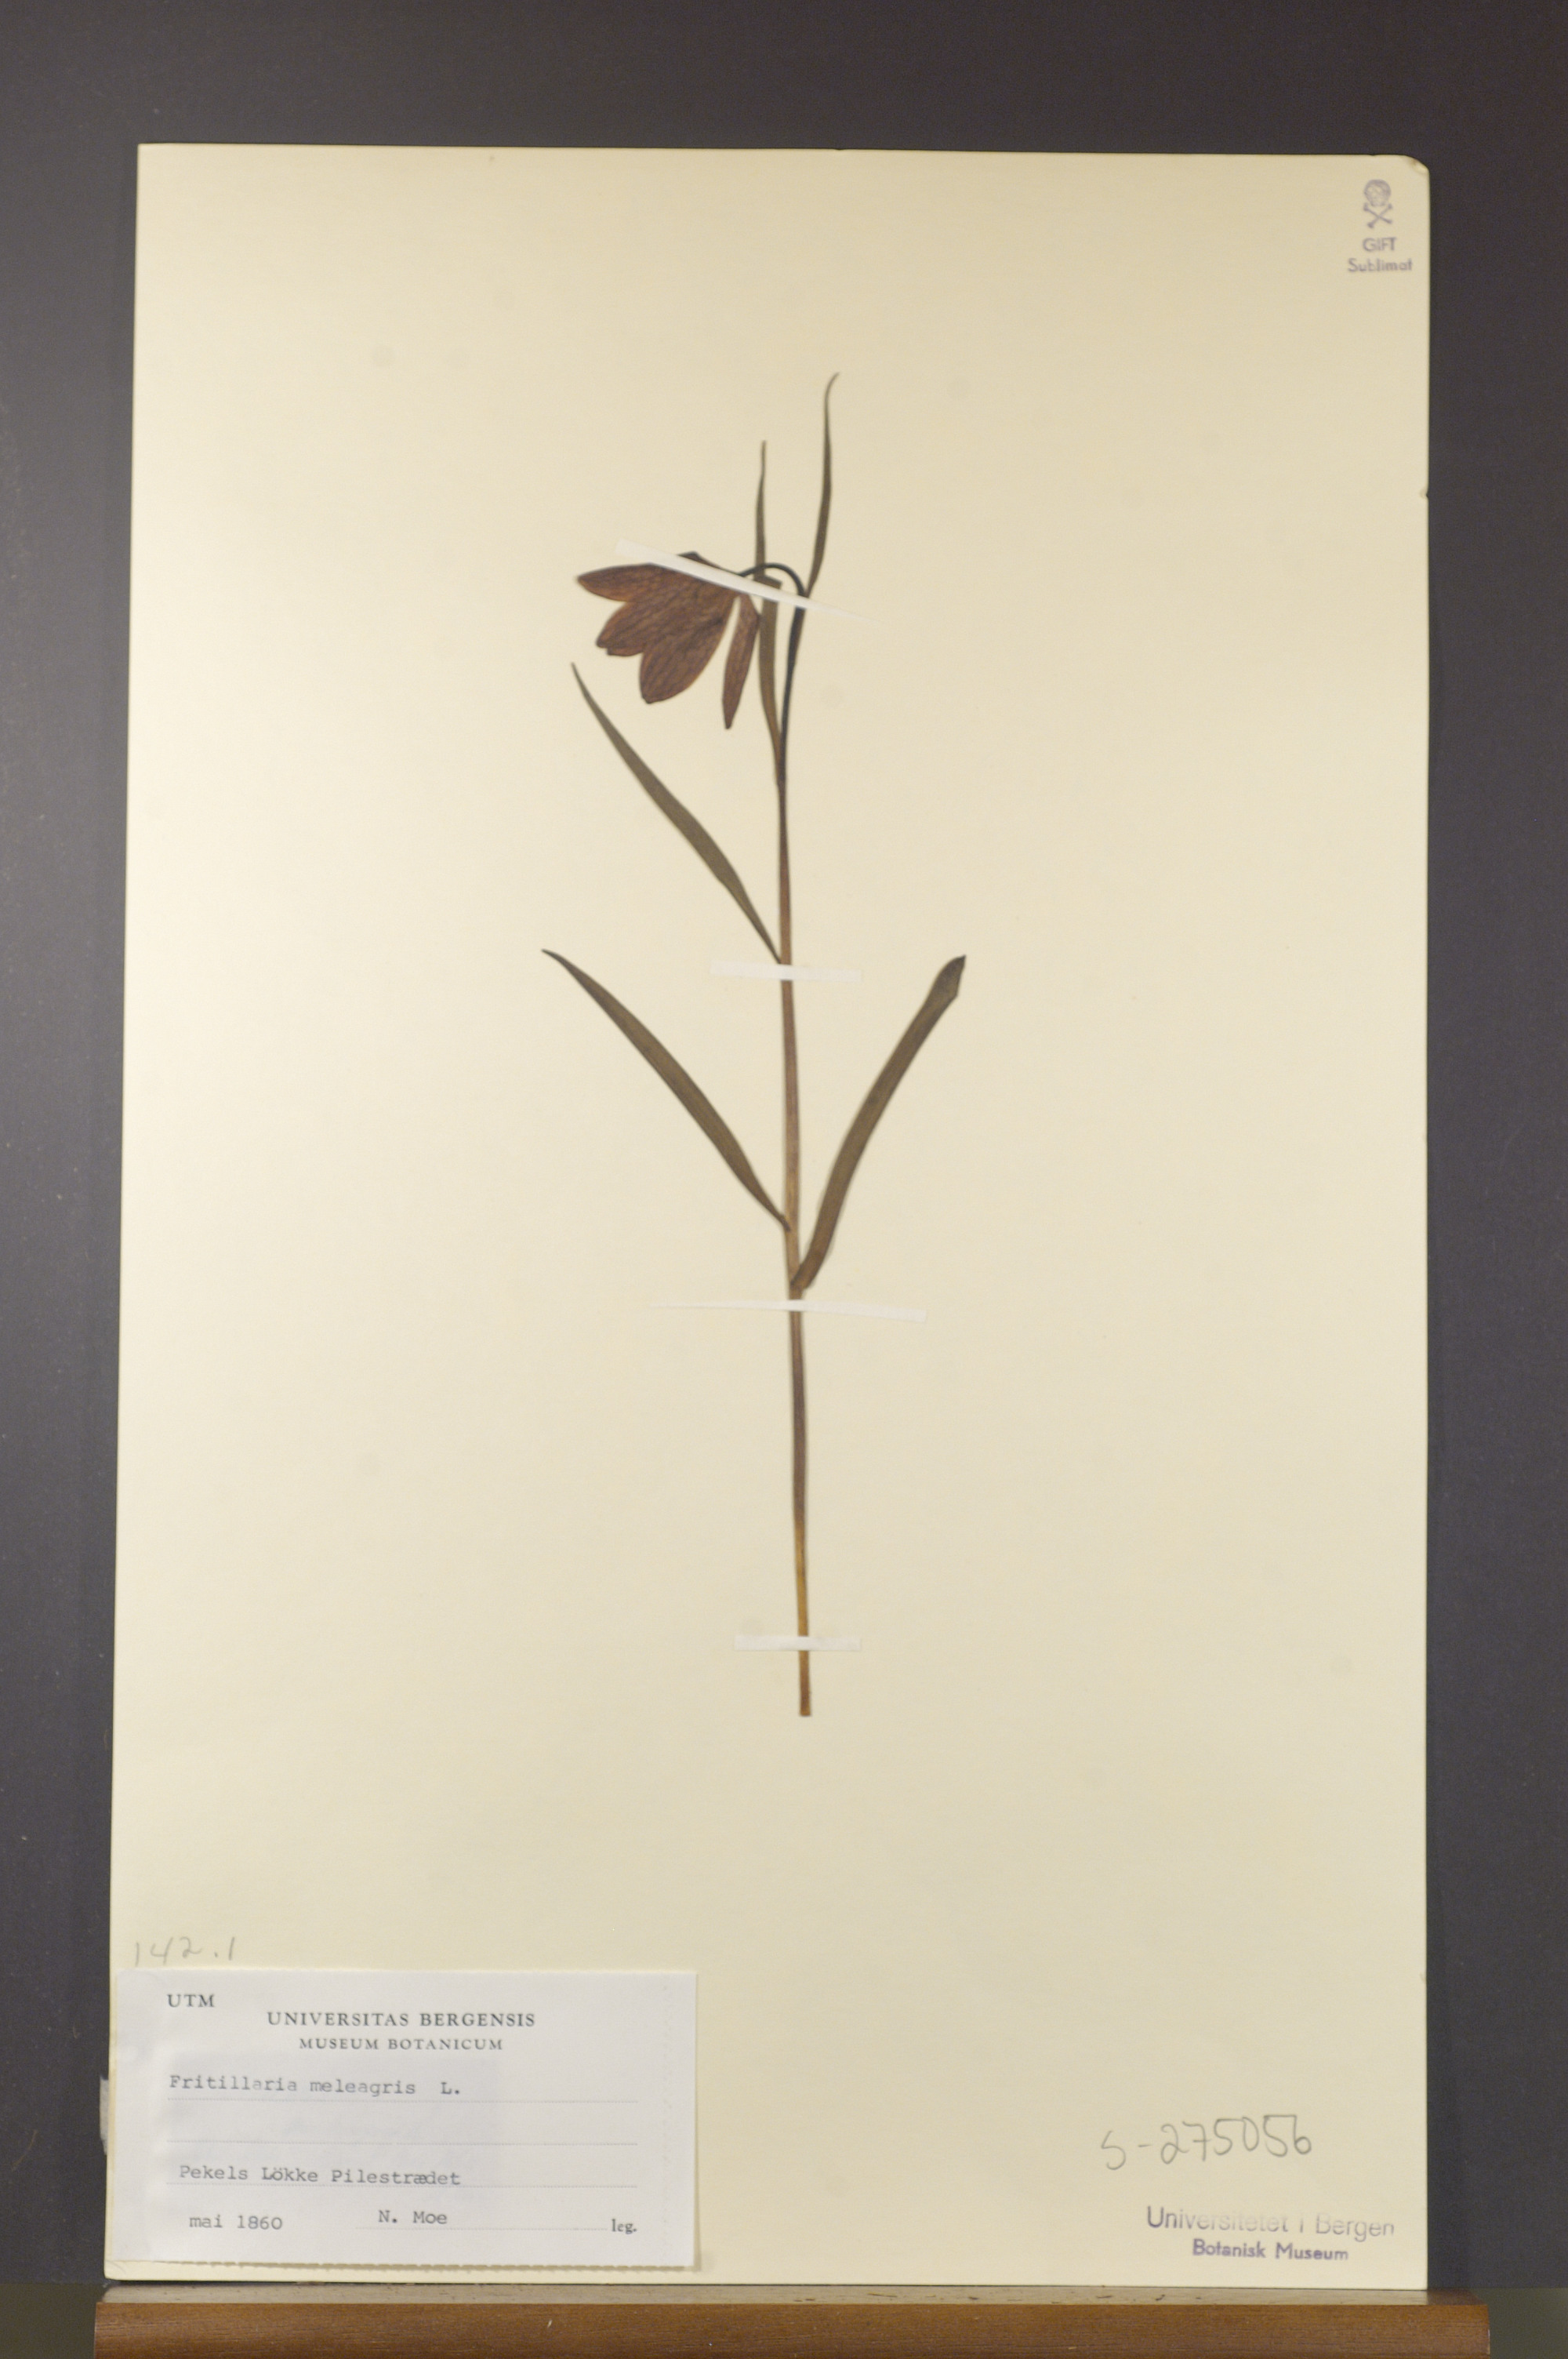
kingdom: Plantae
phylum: Tracheophyta
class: Liliopsida
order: Liliales
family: Liliaceae
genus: Fritillaria
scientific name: Fritillaria meleagris
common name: Fritillary
